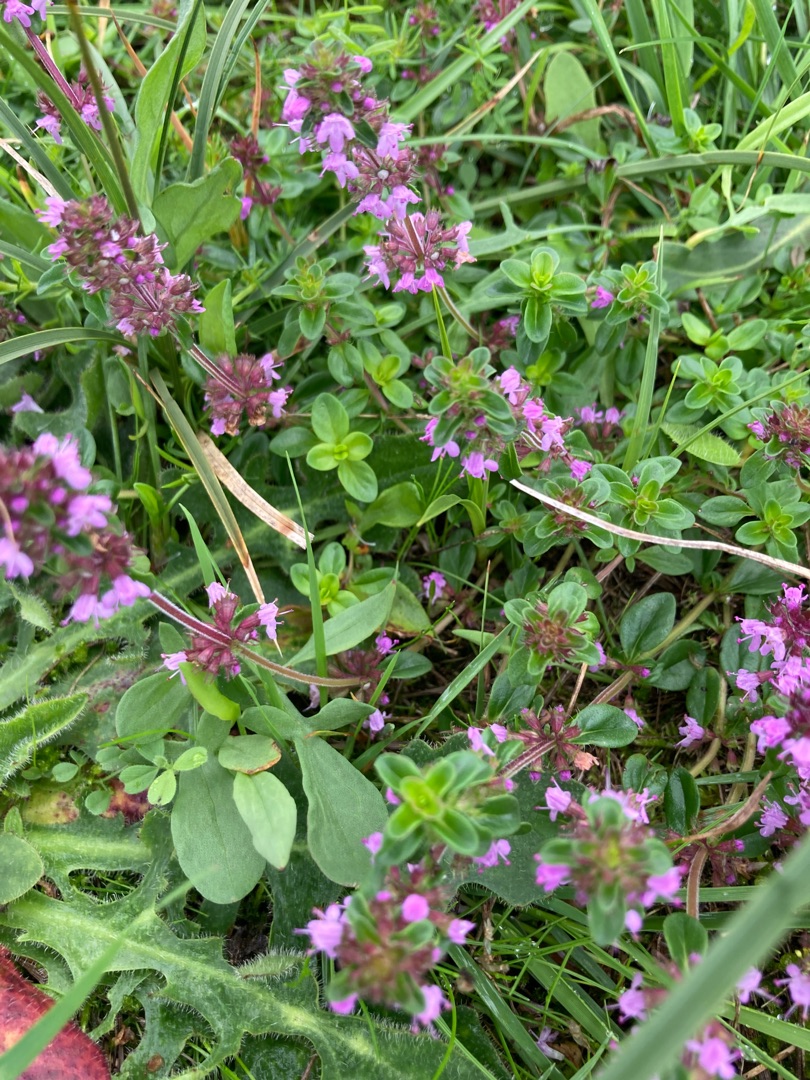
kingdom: Plantae
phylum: Tracheophyta
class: Magnoliopsida
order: Lamiales
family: Lamiaceae
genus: Thymus
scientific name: Thymus pulegioides
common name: Bredbladet timian
